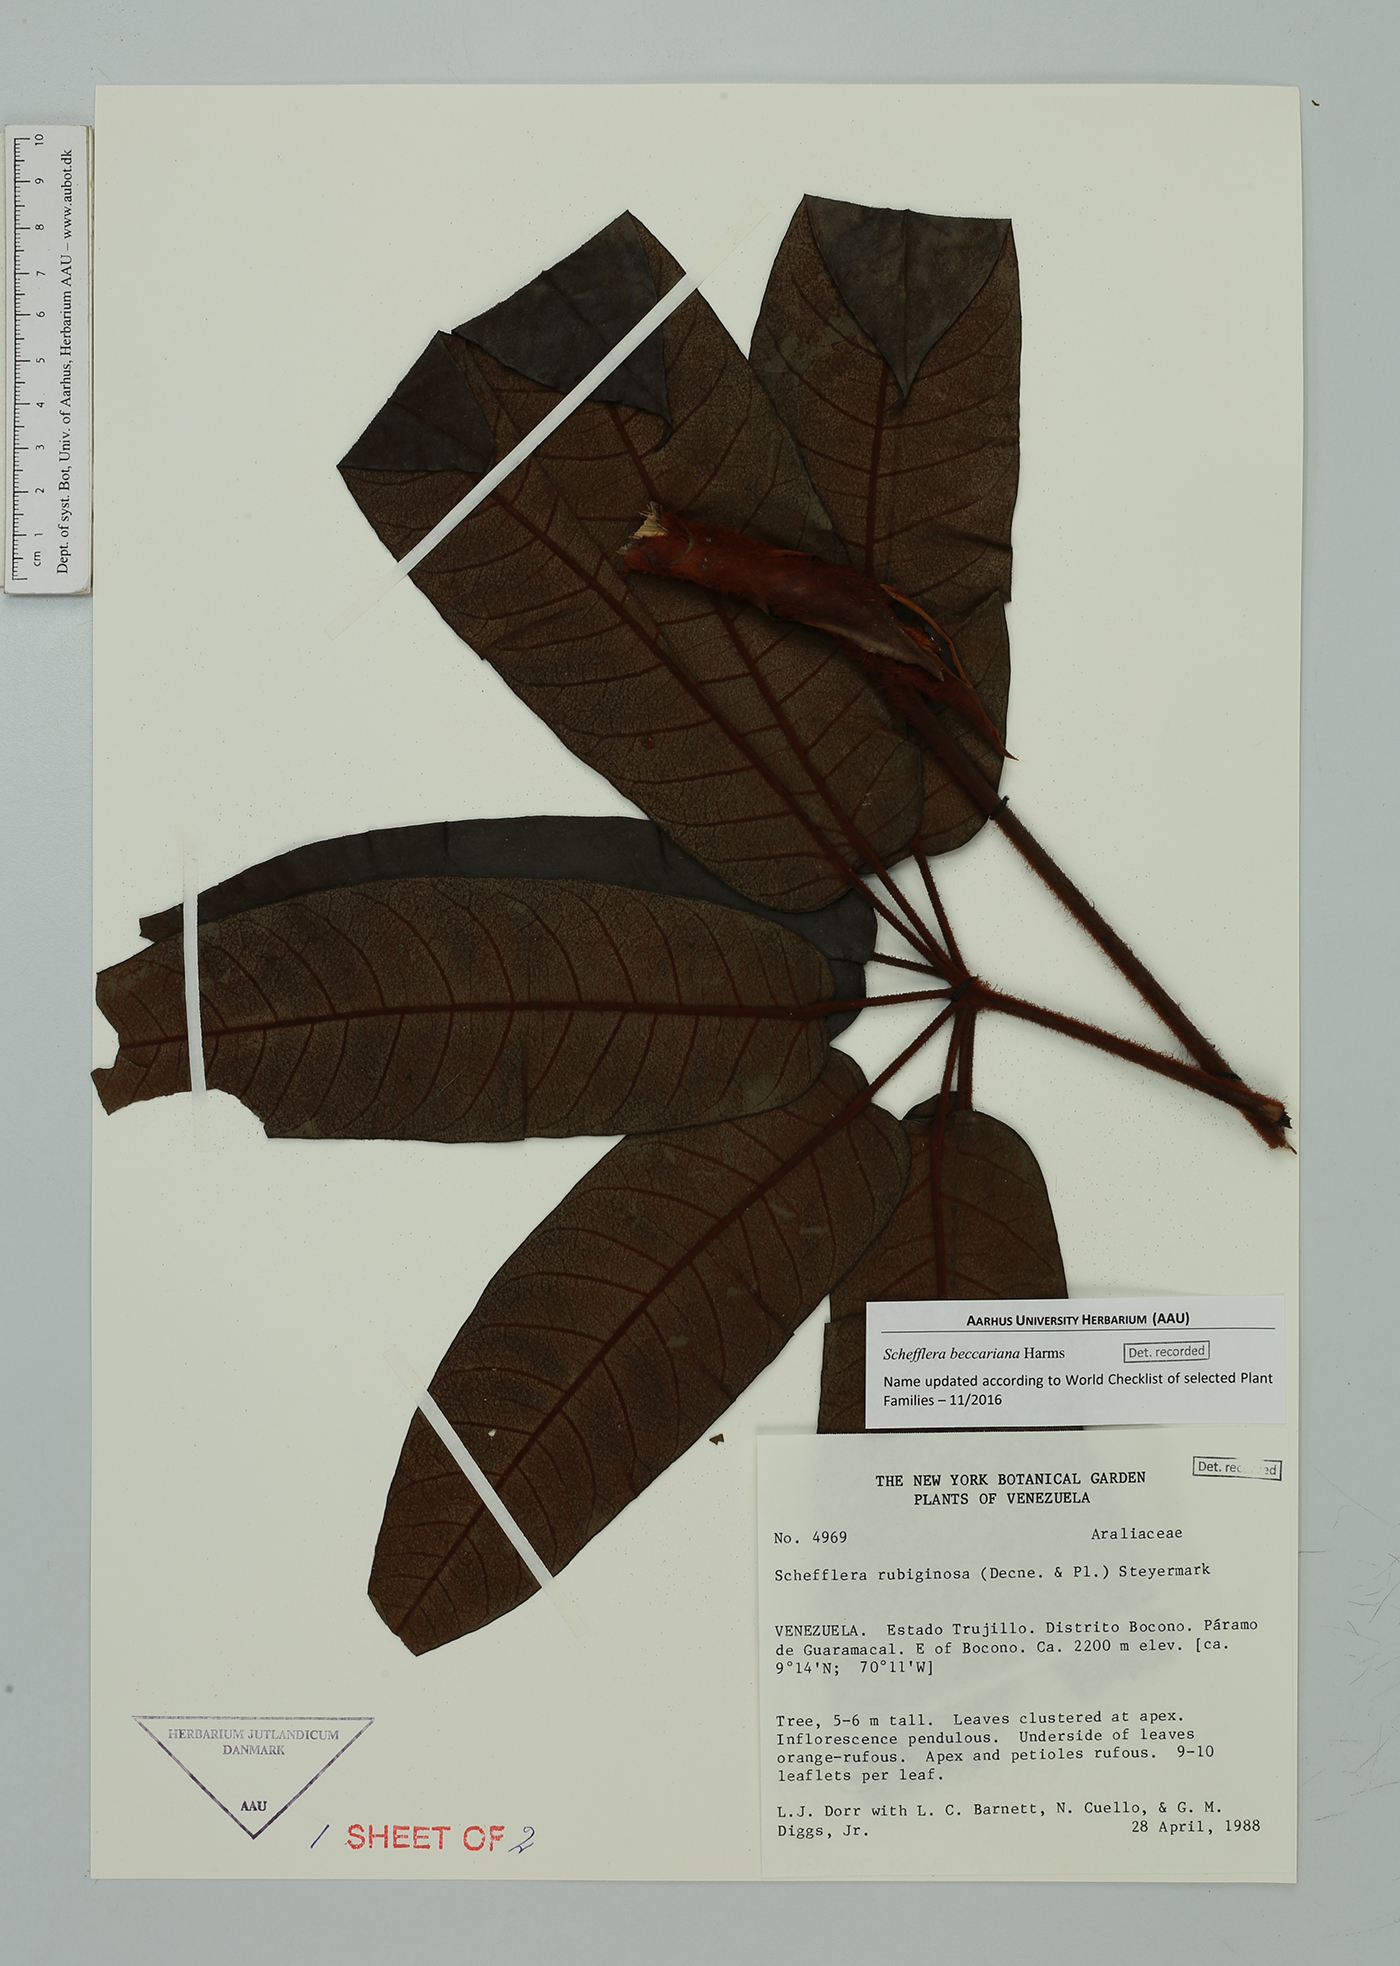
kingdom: Plantae
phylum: Tracheophyta
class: Magnoliopsida
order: Apiales
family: Araliaceae
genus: Sciodaphyllum
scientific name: Sciodaphyllum rubiginosum
